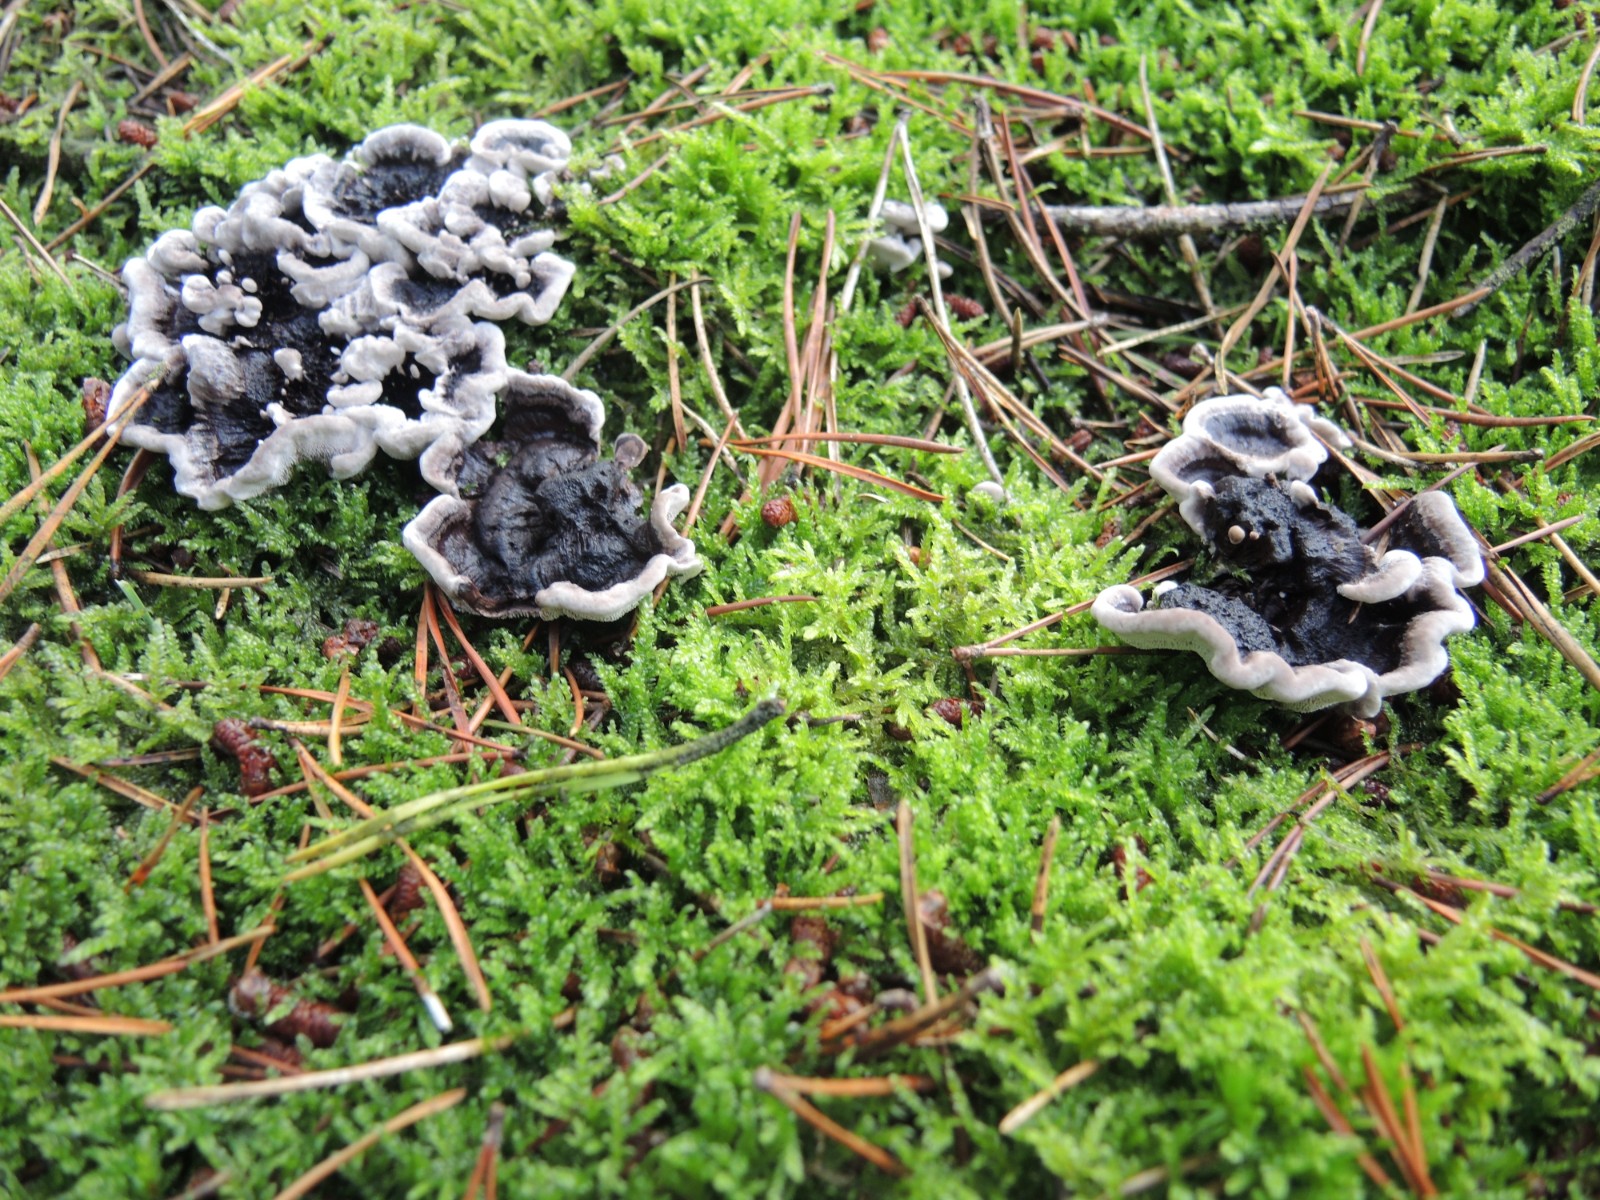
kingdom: Fungi
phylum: Basidiomycota
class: Agaricomycetes
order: Thelephorales
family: Thelephoraceae
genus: Phellodon
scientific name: Phellodon tomentosus
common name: vellugtende duftpigsvamp
